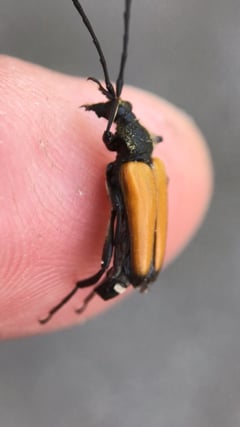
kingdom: Animalia
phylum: Arthropoda
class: Insecta
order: Coleoptera
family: Cerambycidae
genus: Paracorymbia
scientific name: Paracorymbia fulva
